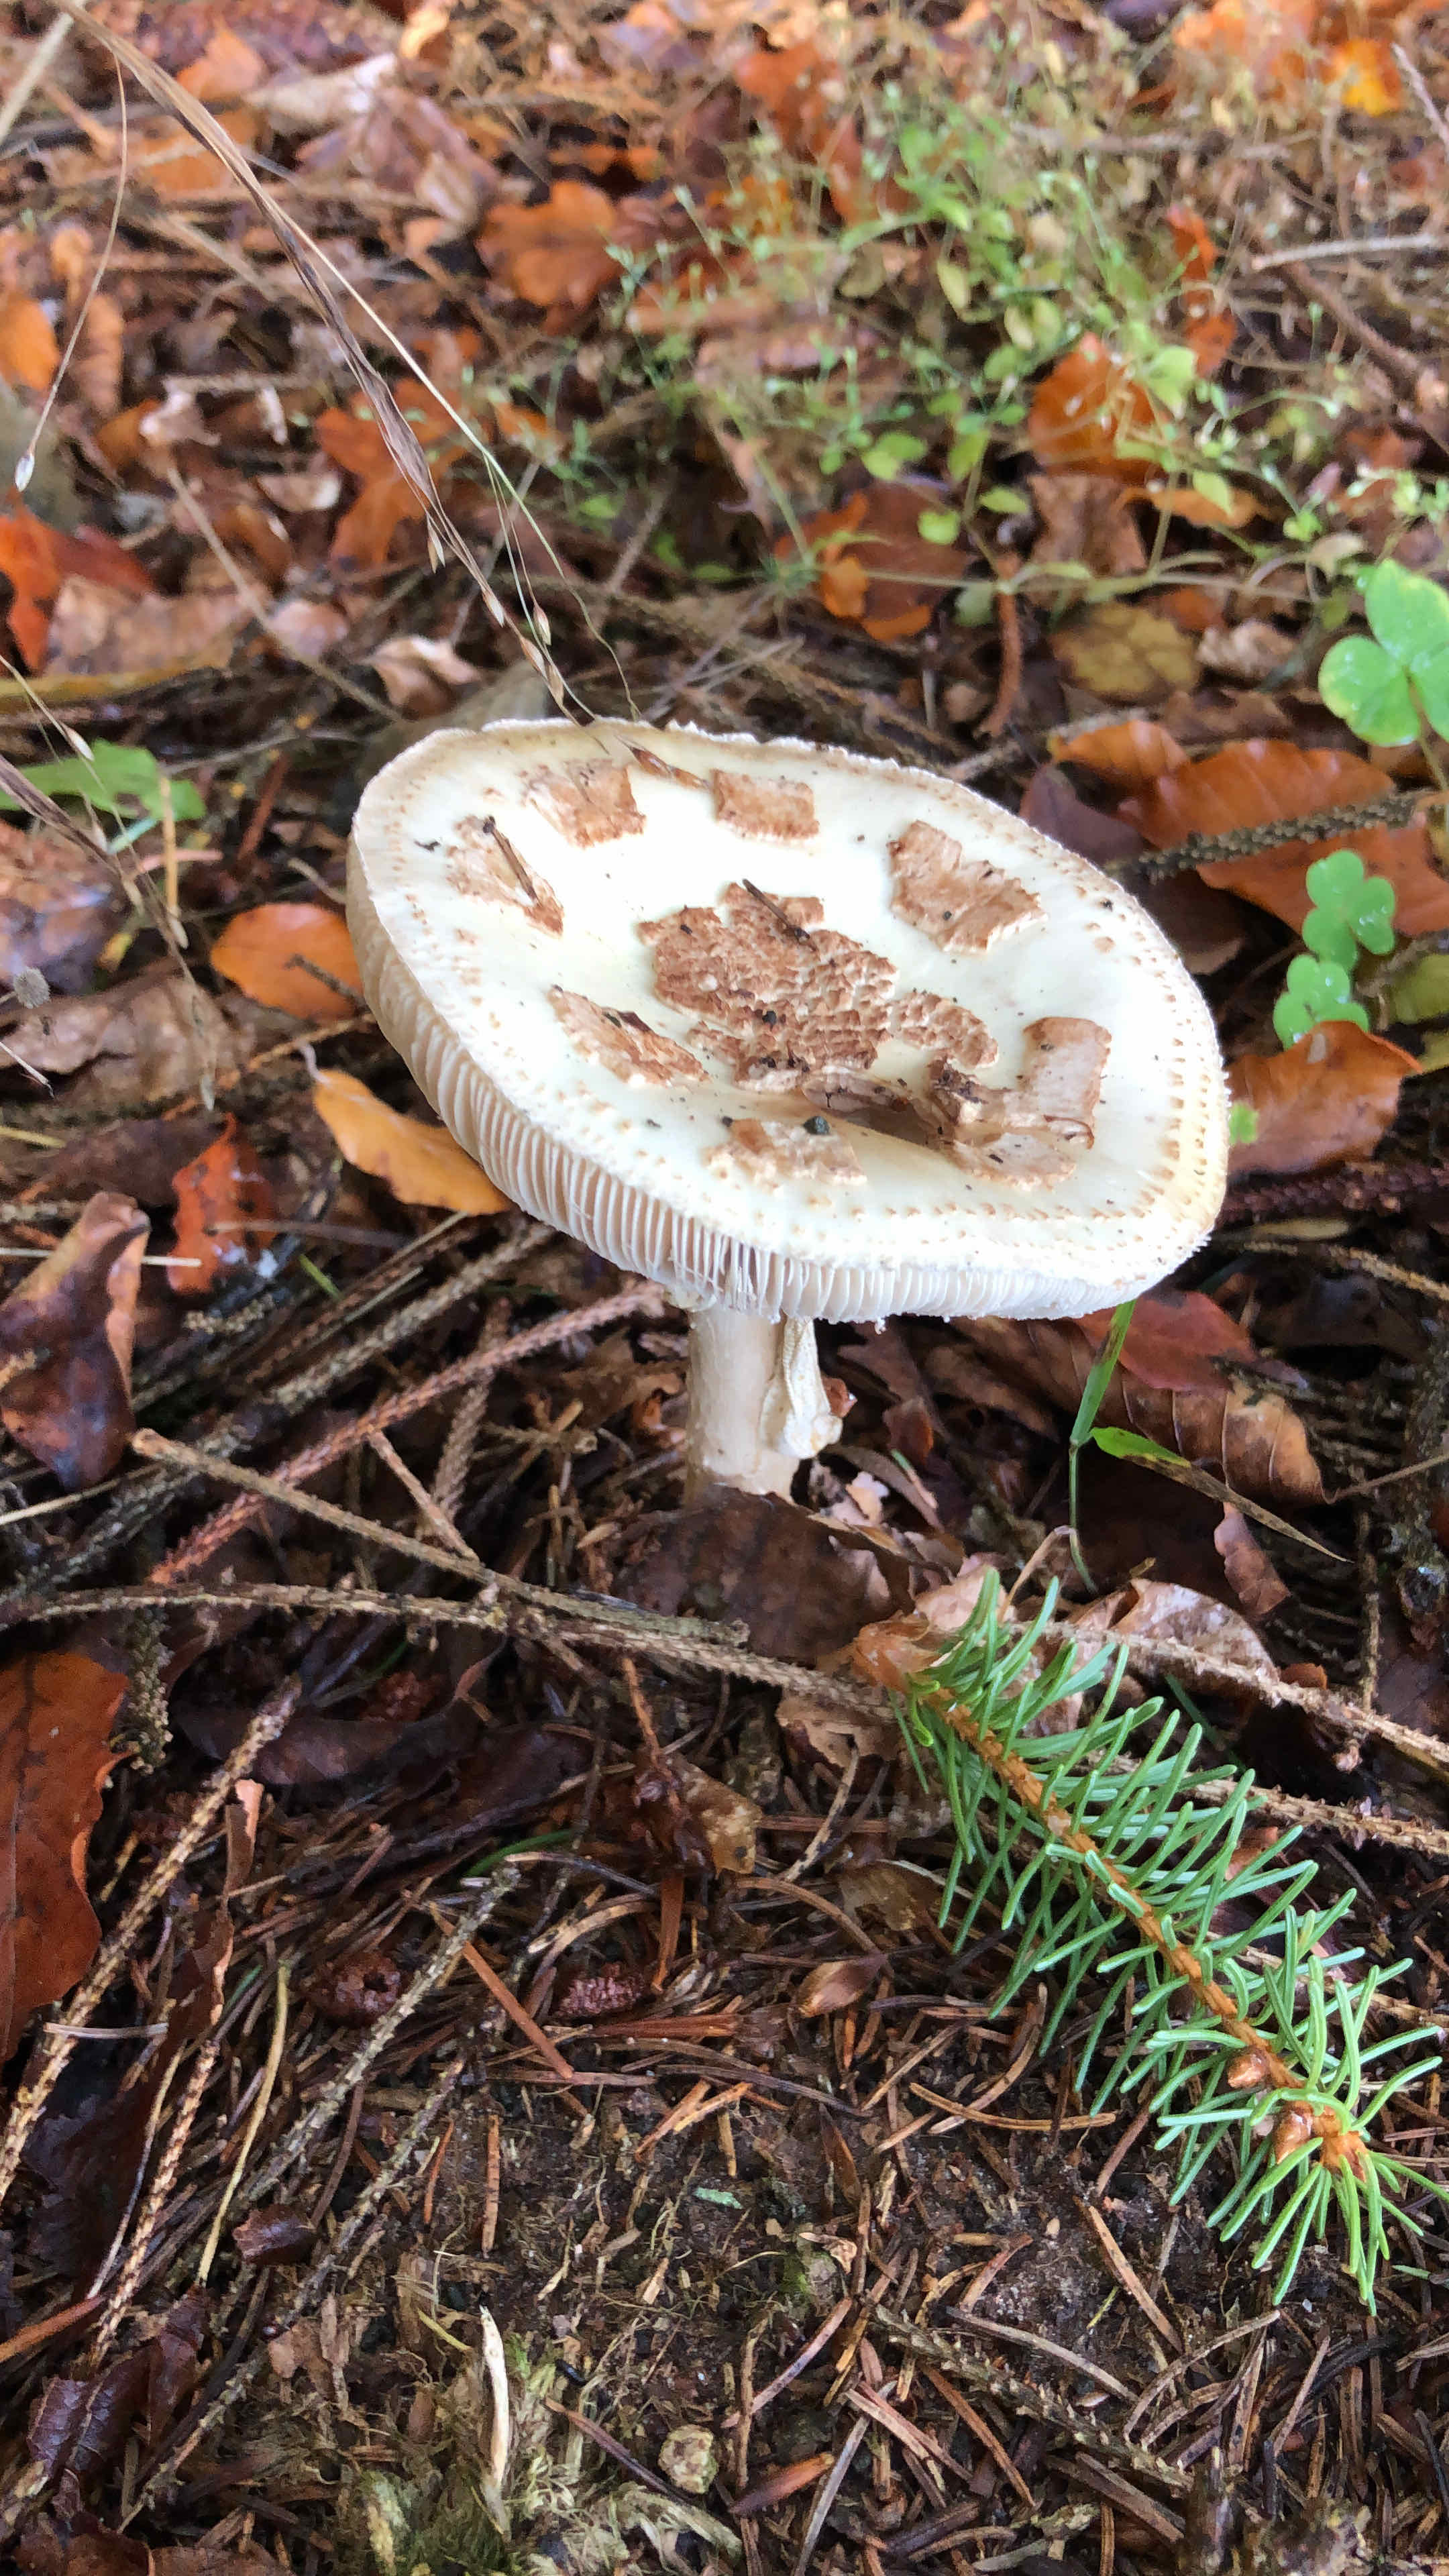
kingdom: Fungi
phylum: Basidiomycota
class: Agaricomycetes
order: Agaricales
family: Amanitaceae
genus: Amanita
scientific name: Amanita citrina
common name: kugleknoldet fluesvamp
